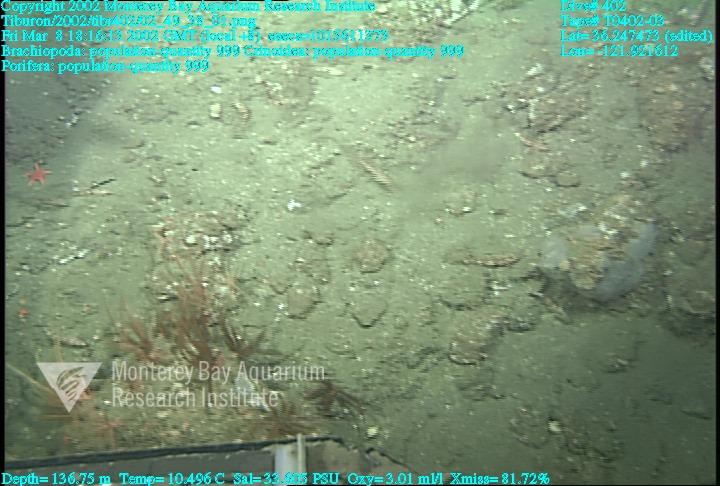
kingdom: Animalia
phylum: Porifera
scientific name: Porifera
